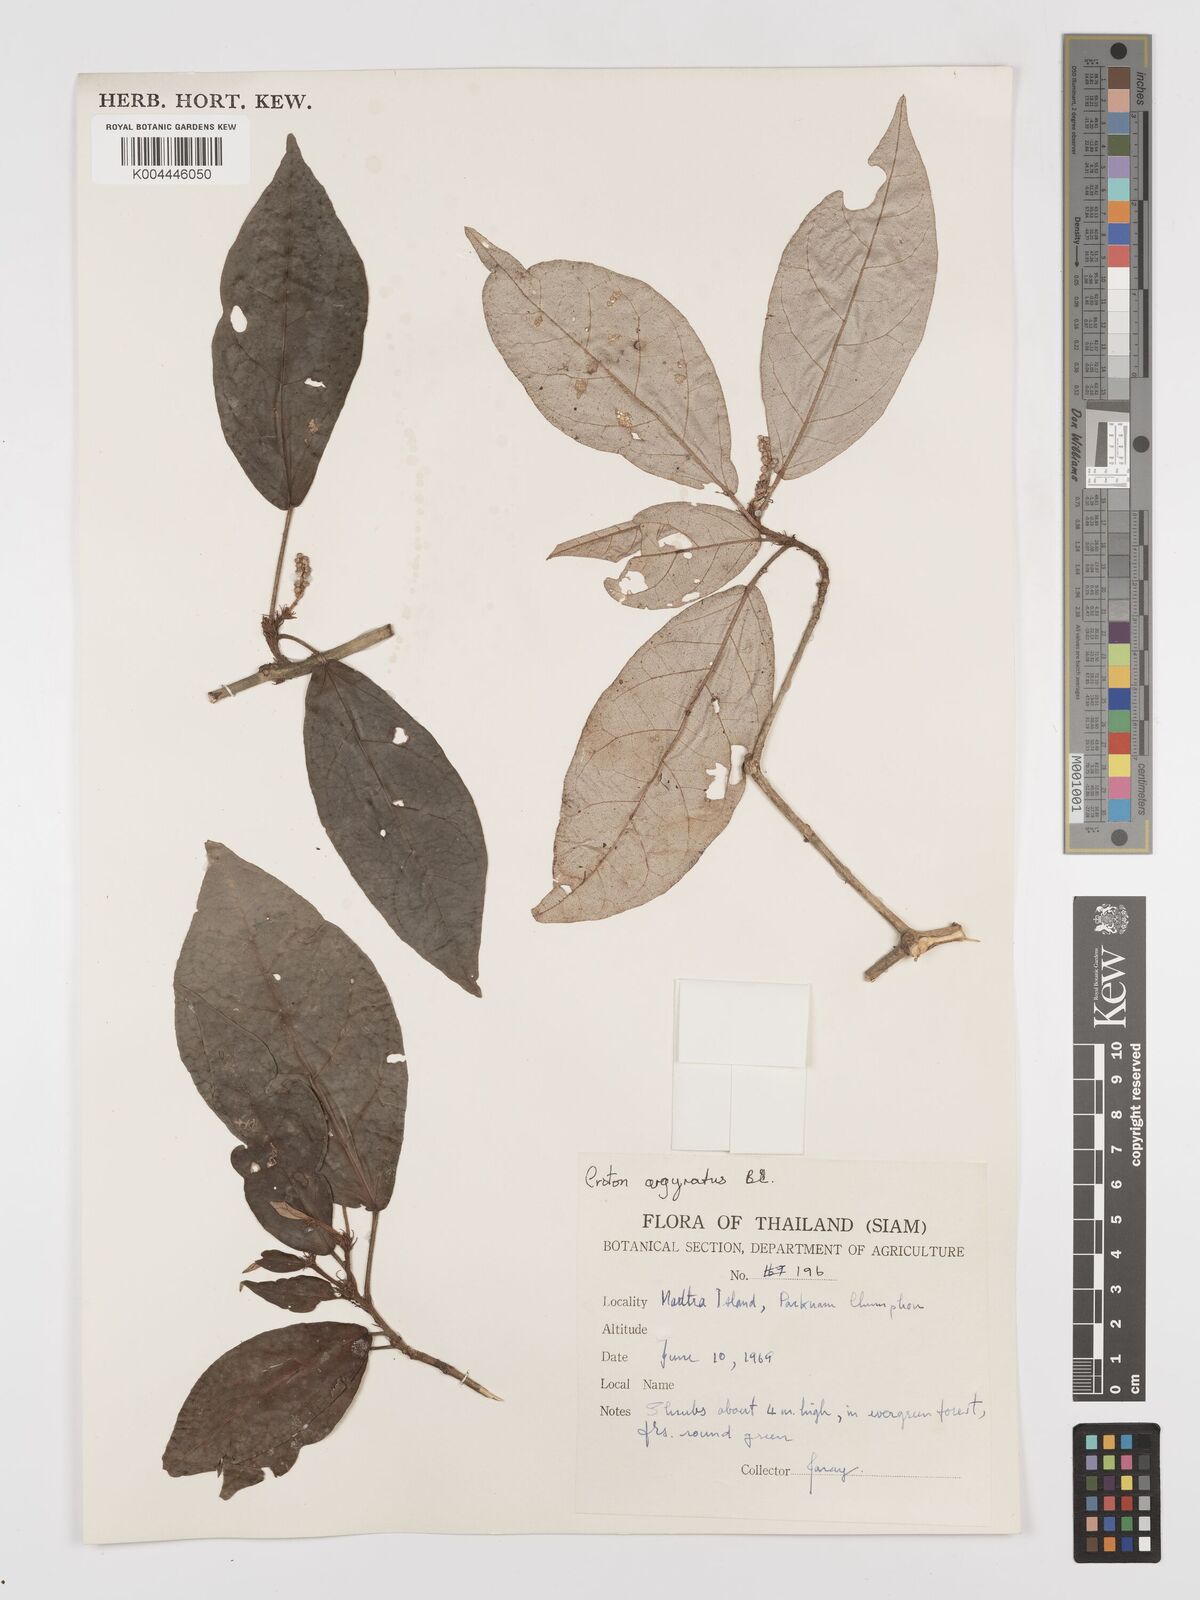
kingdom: Plantae
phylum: Tracheophyta
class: Magnoliopsida
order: Malpighiales
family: Euphorbiaceae
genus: Croton
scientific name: Croton argyratus
